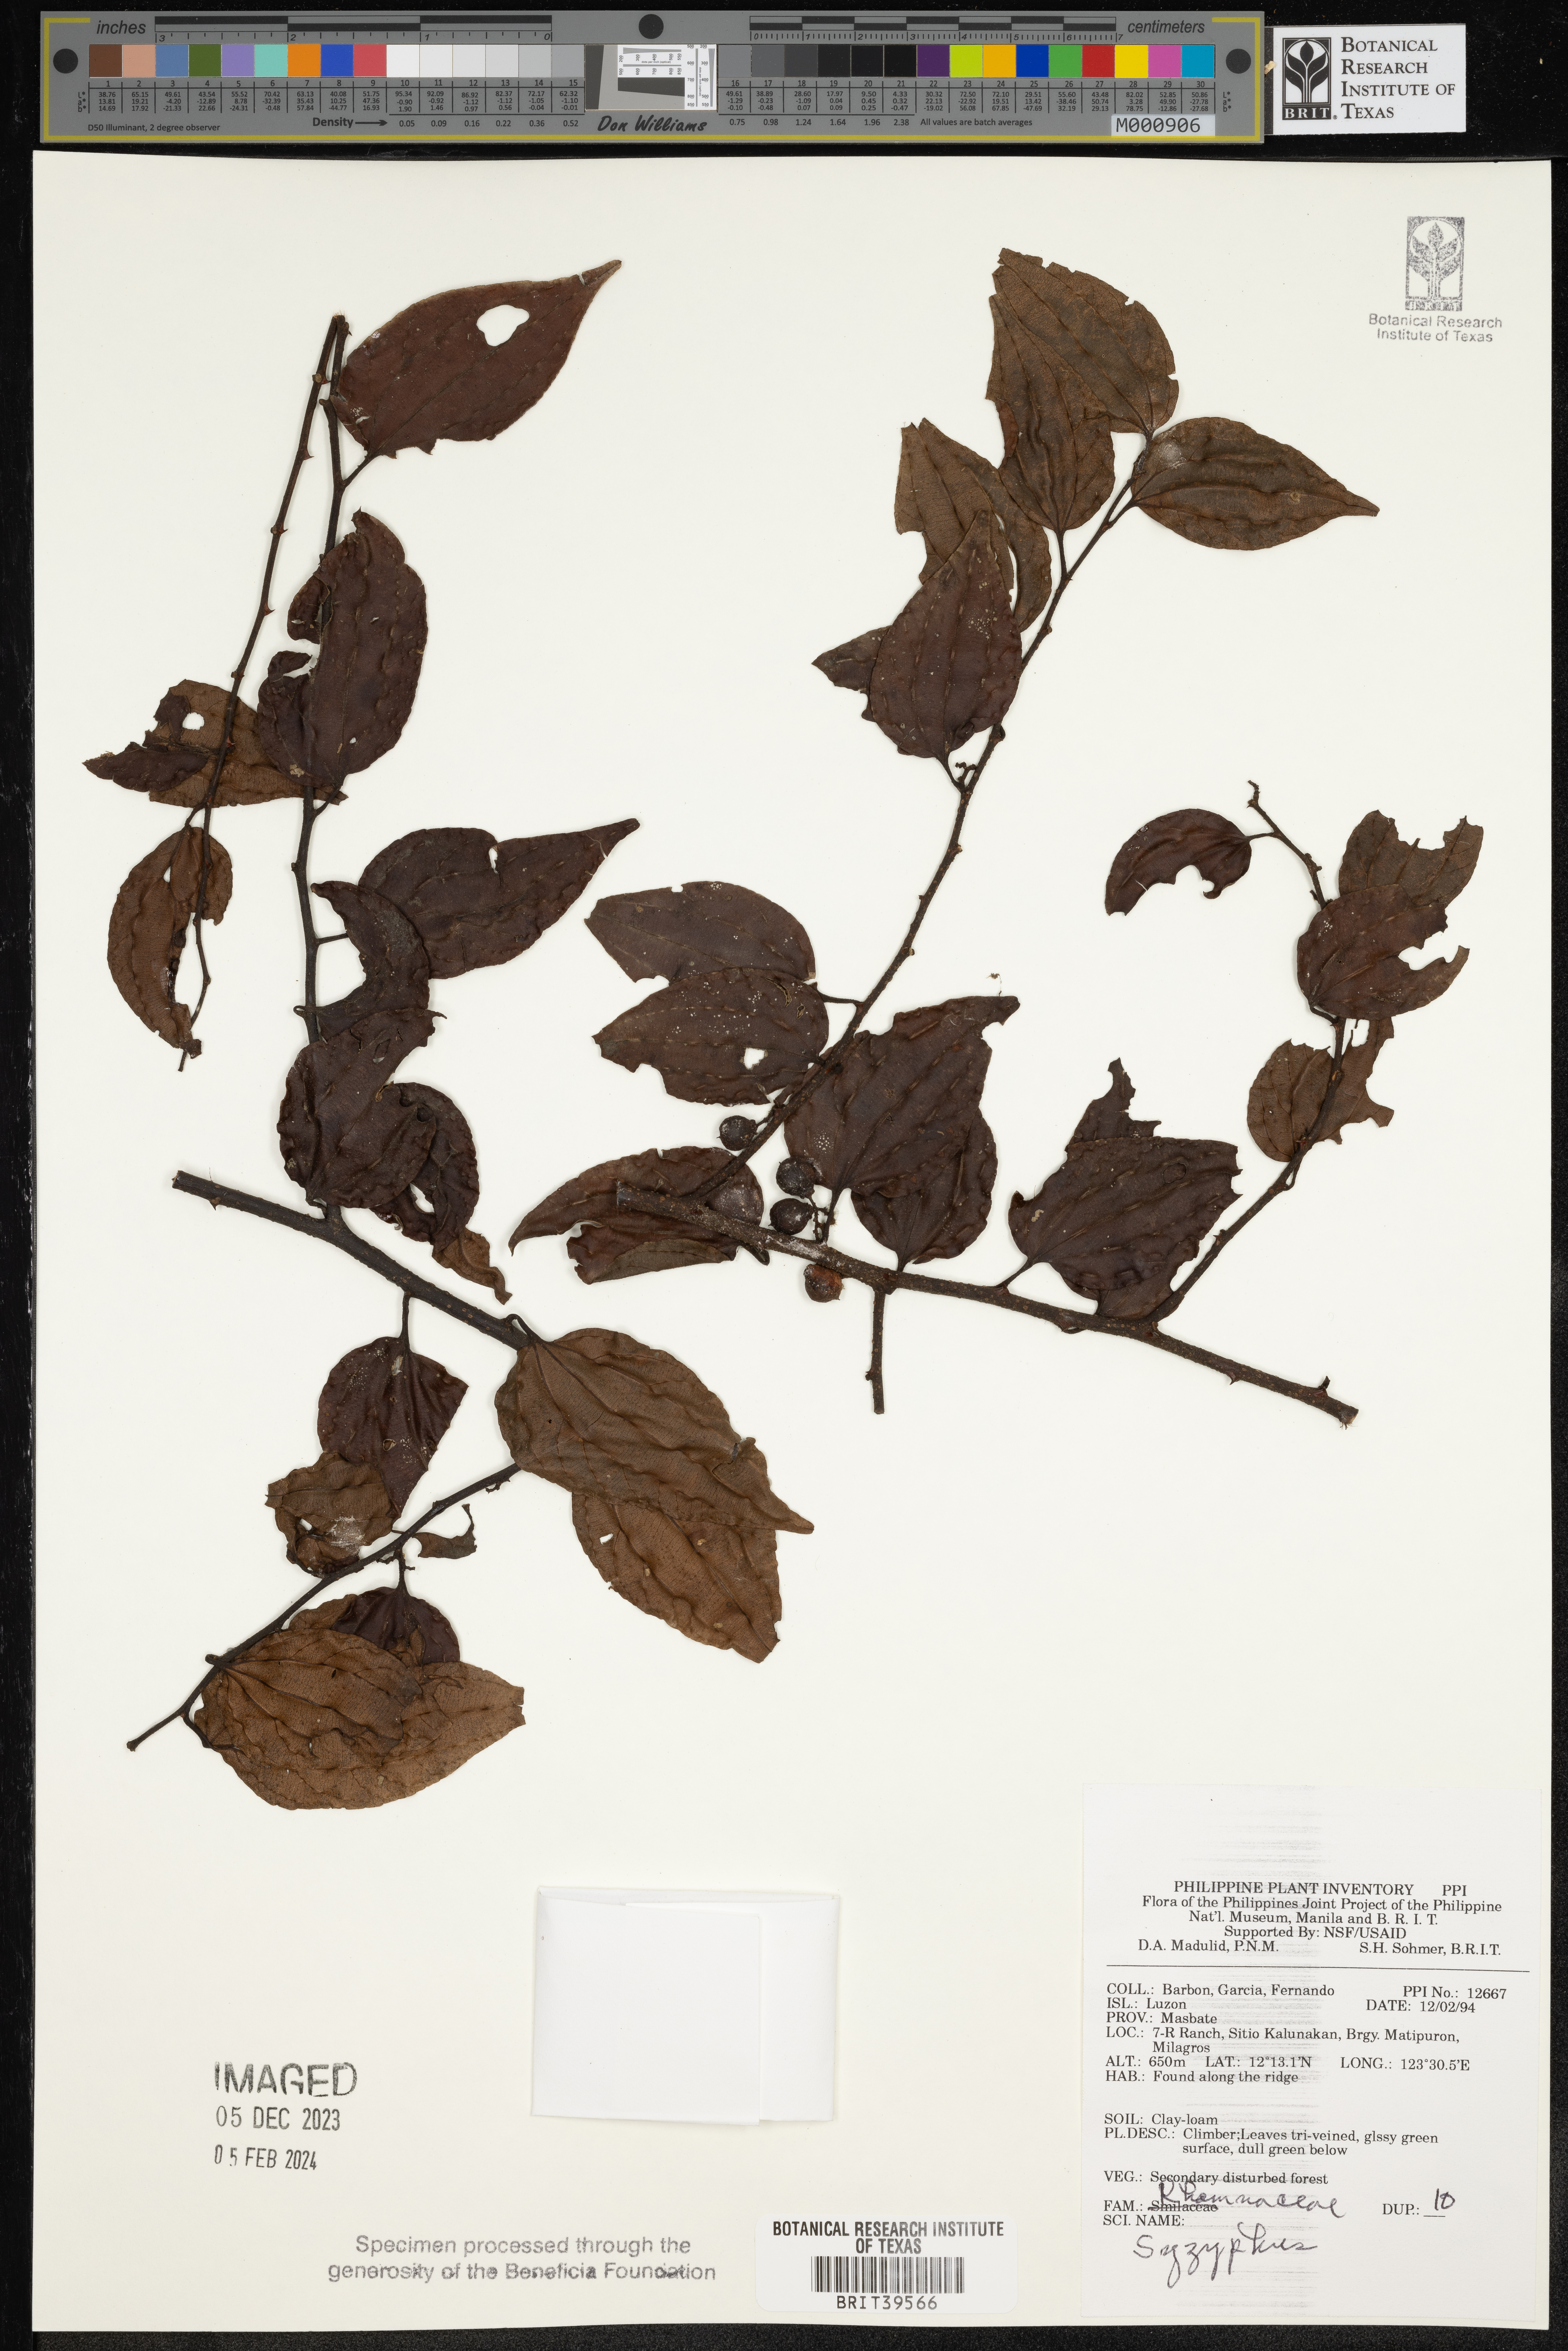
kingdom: Plantae
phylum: Tracheophyta
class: Magnoliopsida
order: Rosales
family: Rhamnaceae
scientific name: Rhamnaceae
